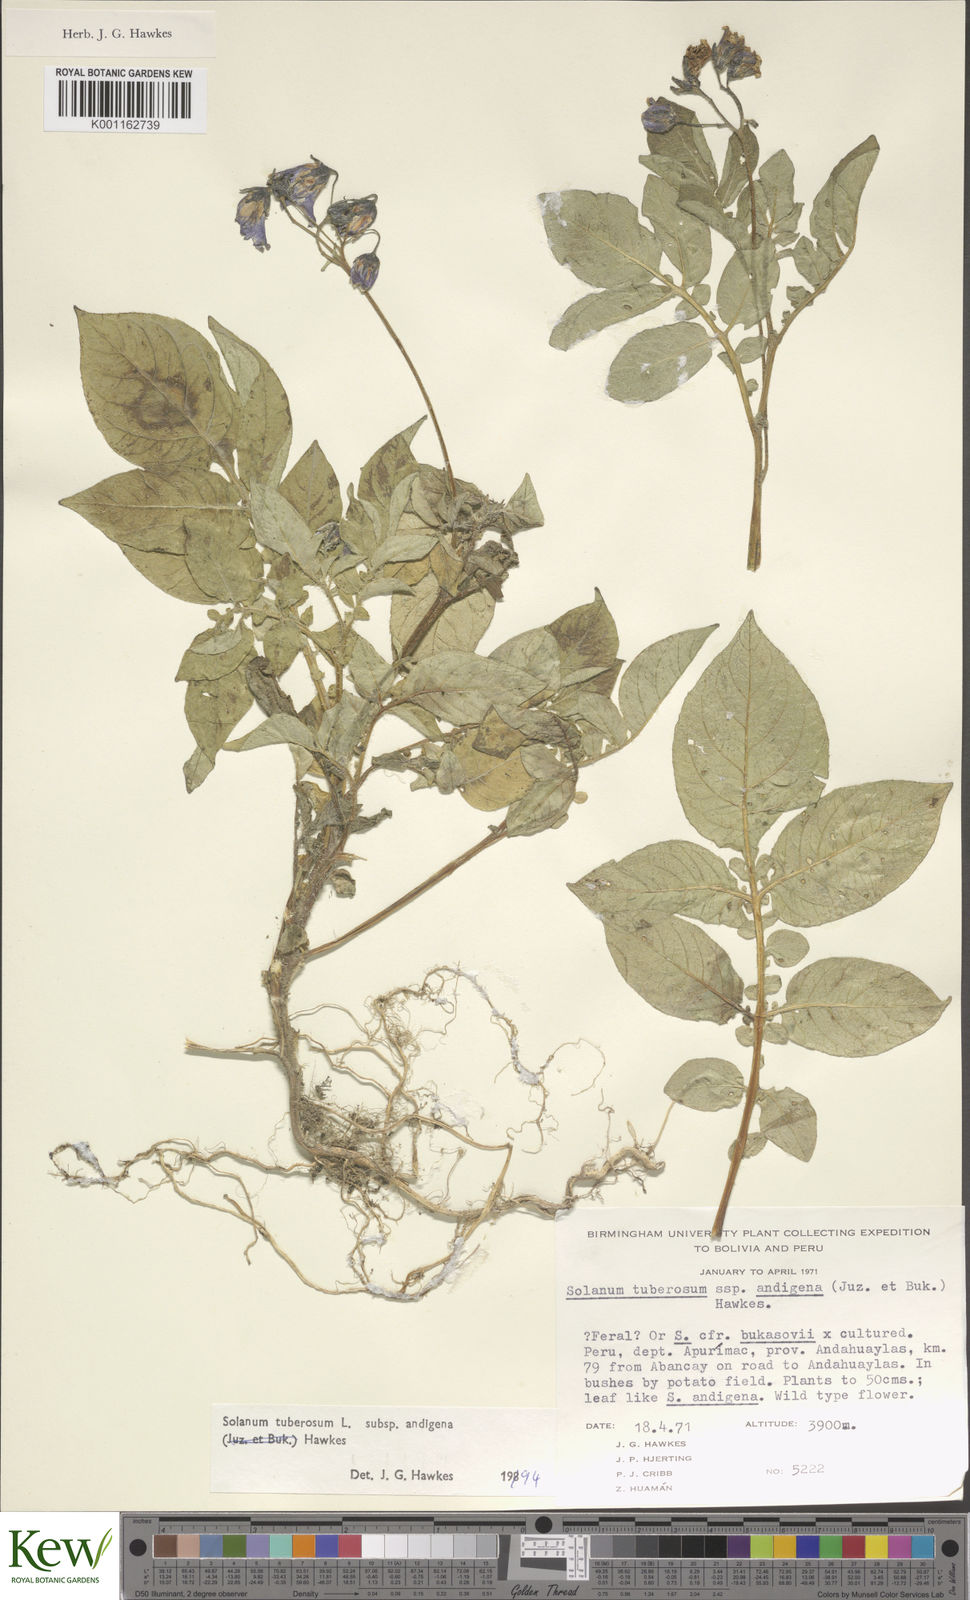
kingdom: Plantae
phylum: Tracheophyta
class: Magnoliopsida
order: Solanales
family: Solanaceae
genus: Solanum
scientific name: Solanum tuberosum
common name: Potato
